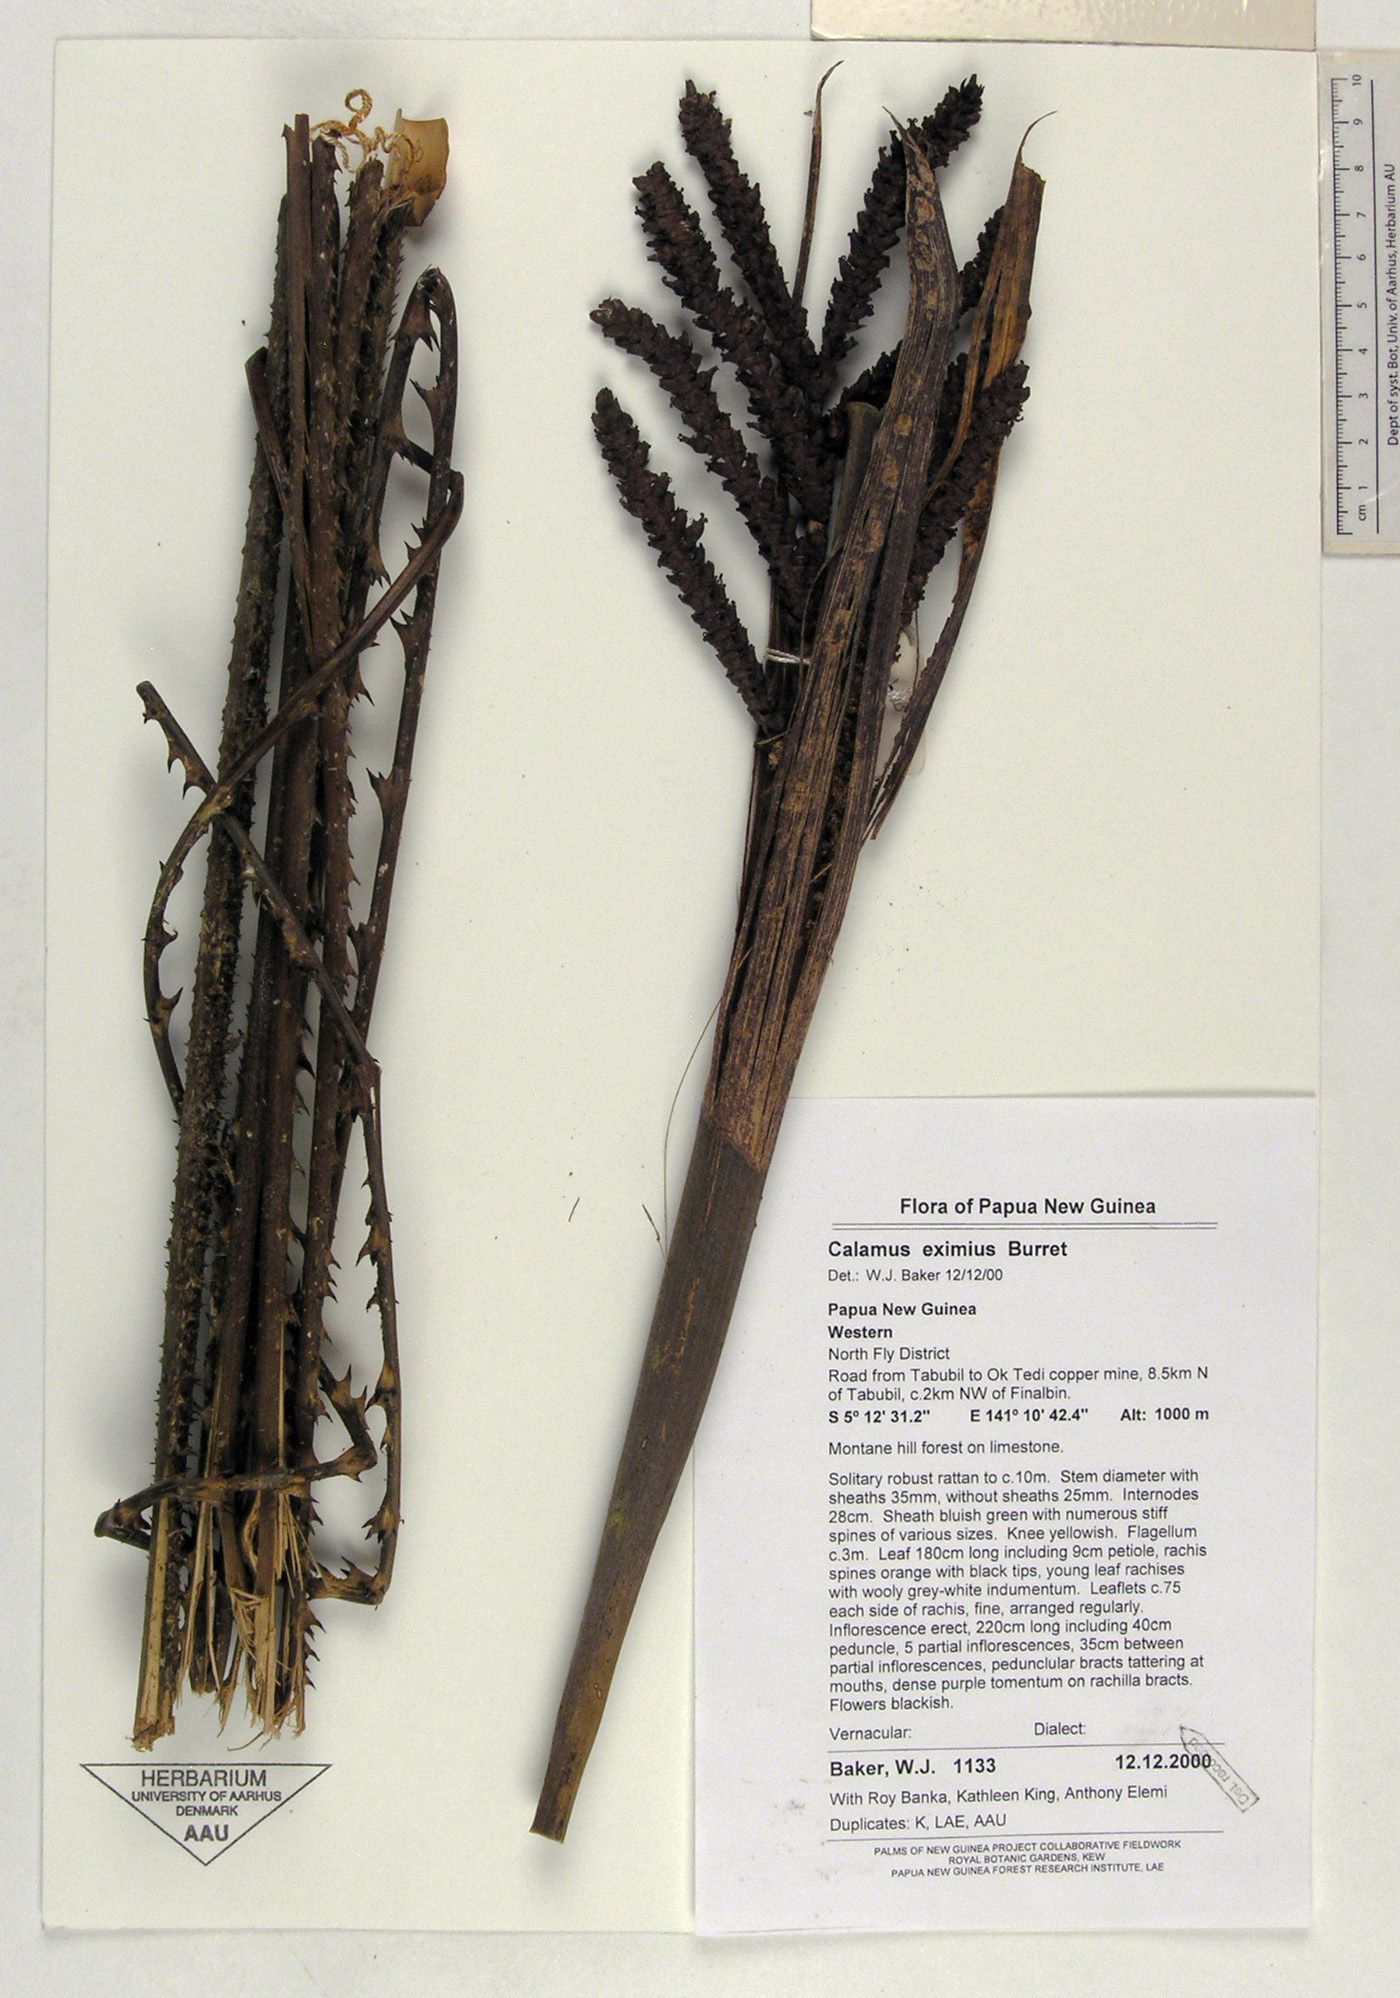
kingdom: Plantae
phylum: Tracheophyta
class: Liliopsida
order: Arecales
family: Arecaceae
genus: Calamus
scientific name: Calamus serrulatus
